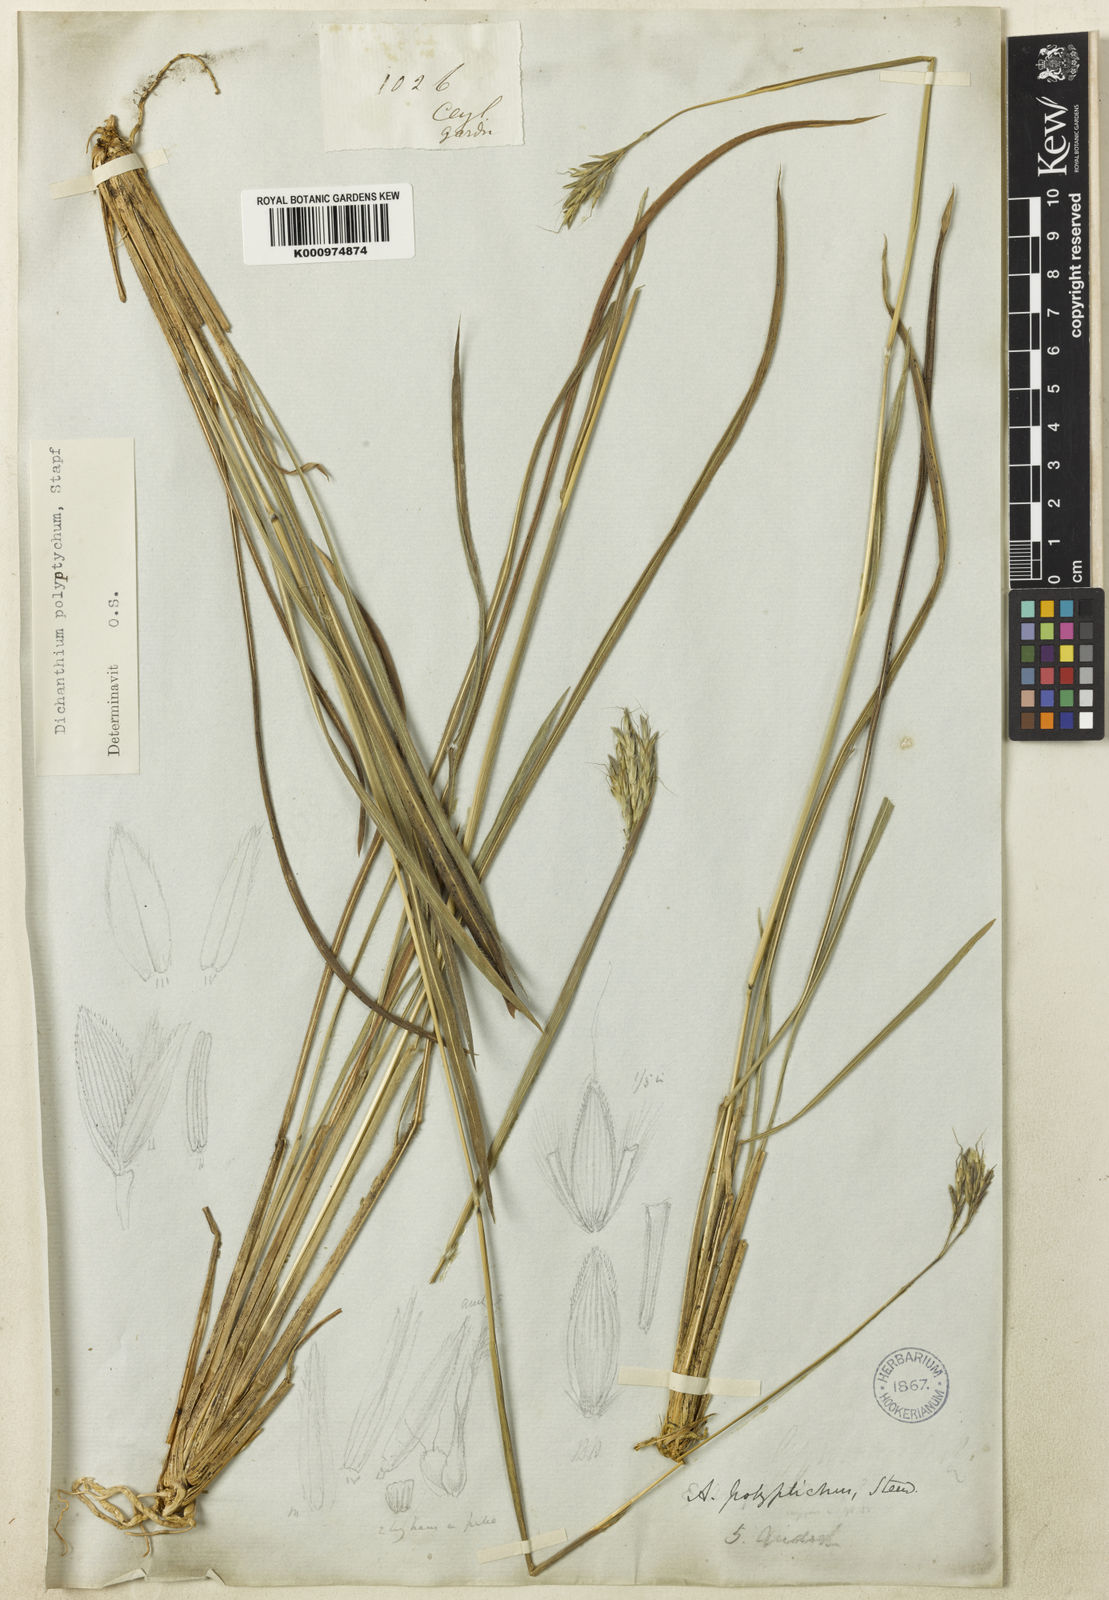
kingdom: Plantae
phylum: Tracheophyta
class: Liliopsida
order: Poales
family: Poaceae
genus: Andropogon
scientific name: Andropogon polyptychos
